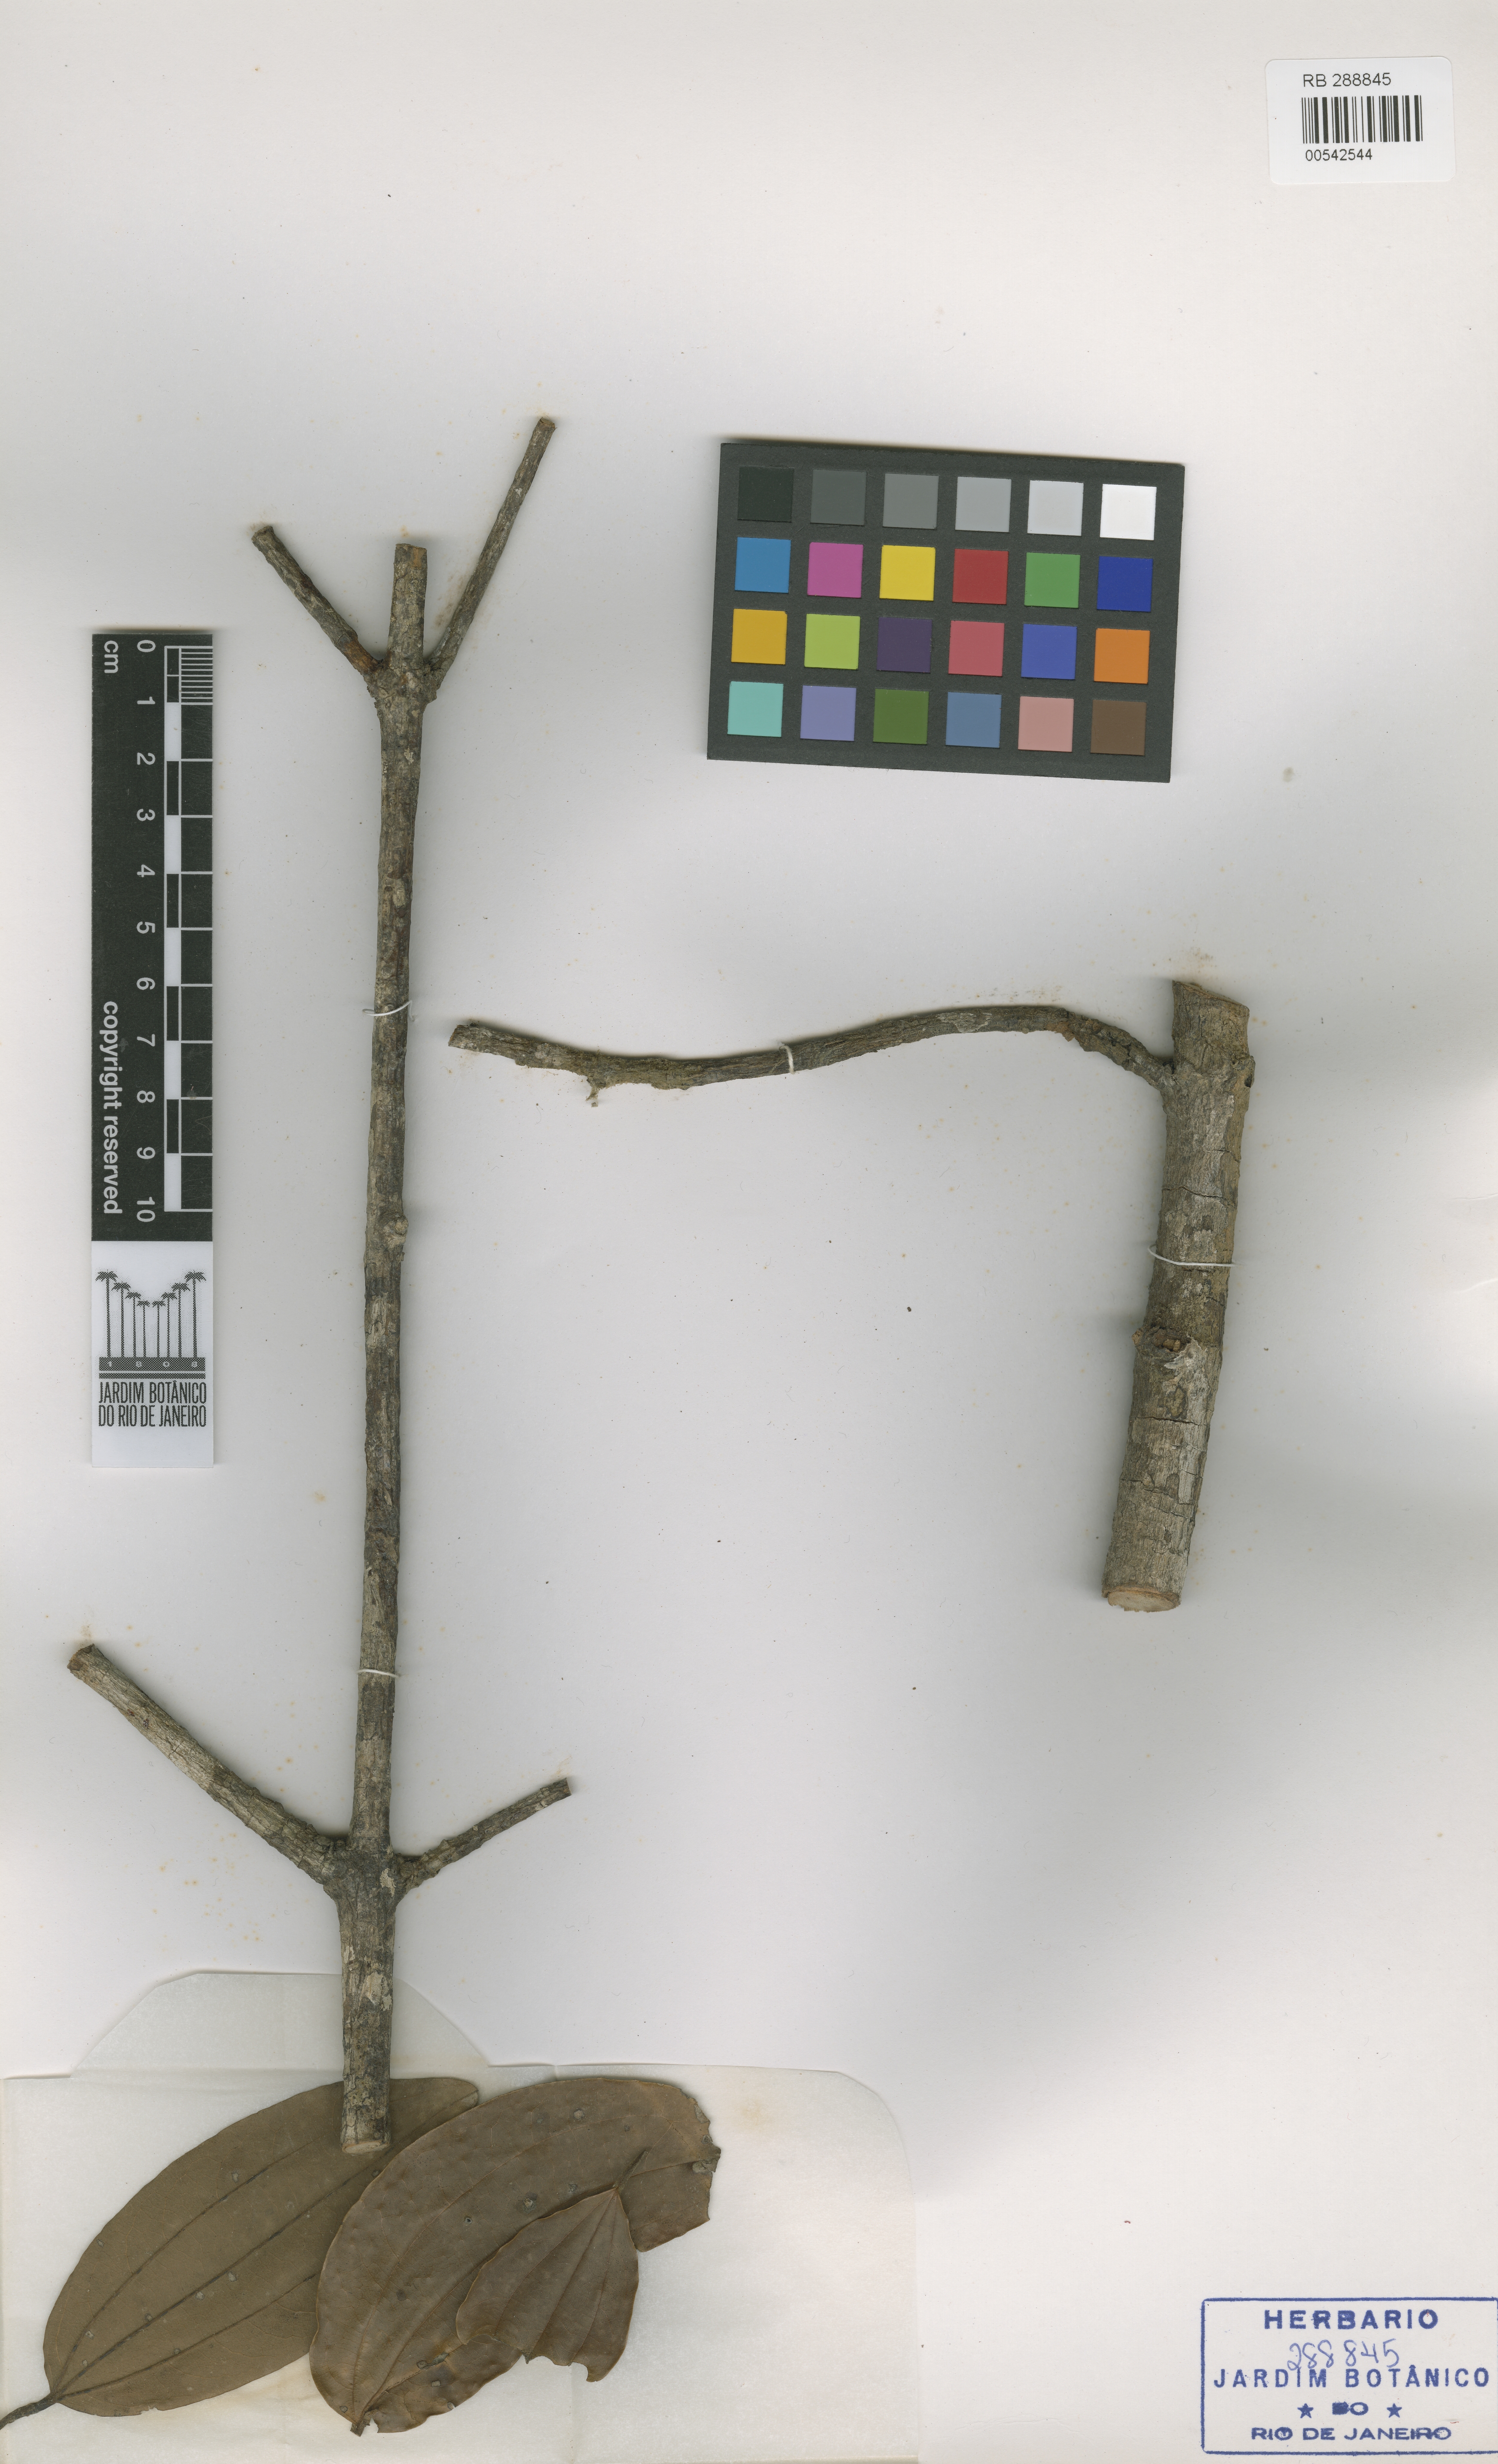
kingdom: Plantae
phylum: Tracheophyta
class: Magnoliopsida
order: Laurales
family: Lauraceae
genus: Caryodaphnopsis
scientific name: Caryodaphnopsis fosteri
